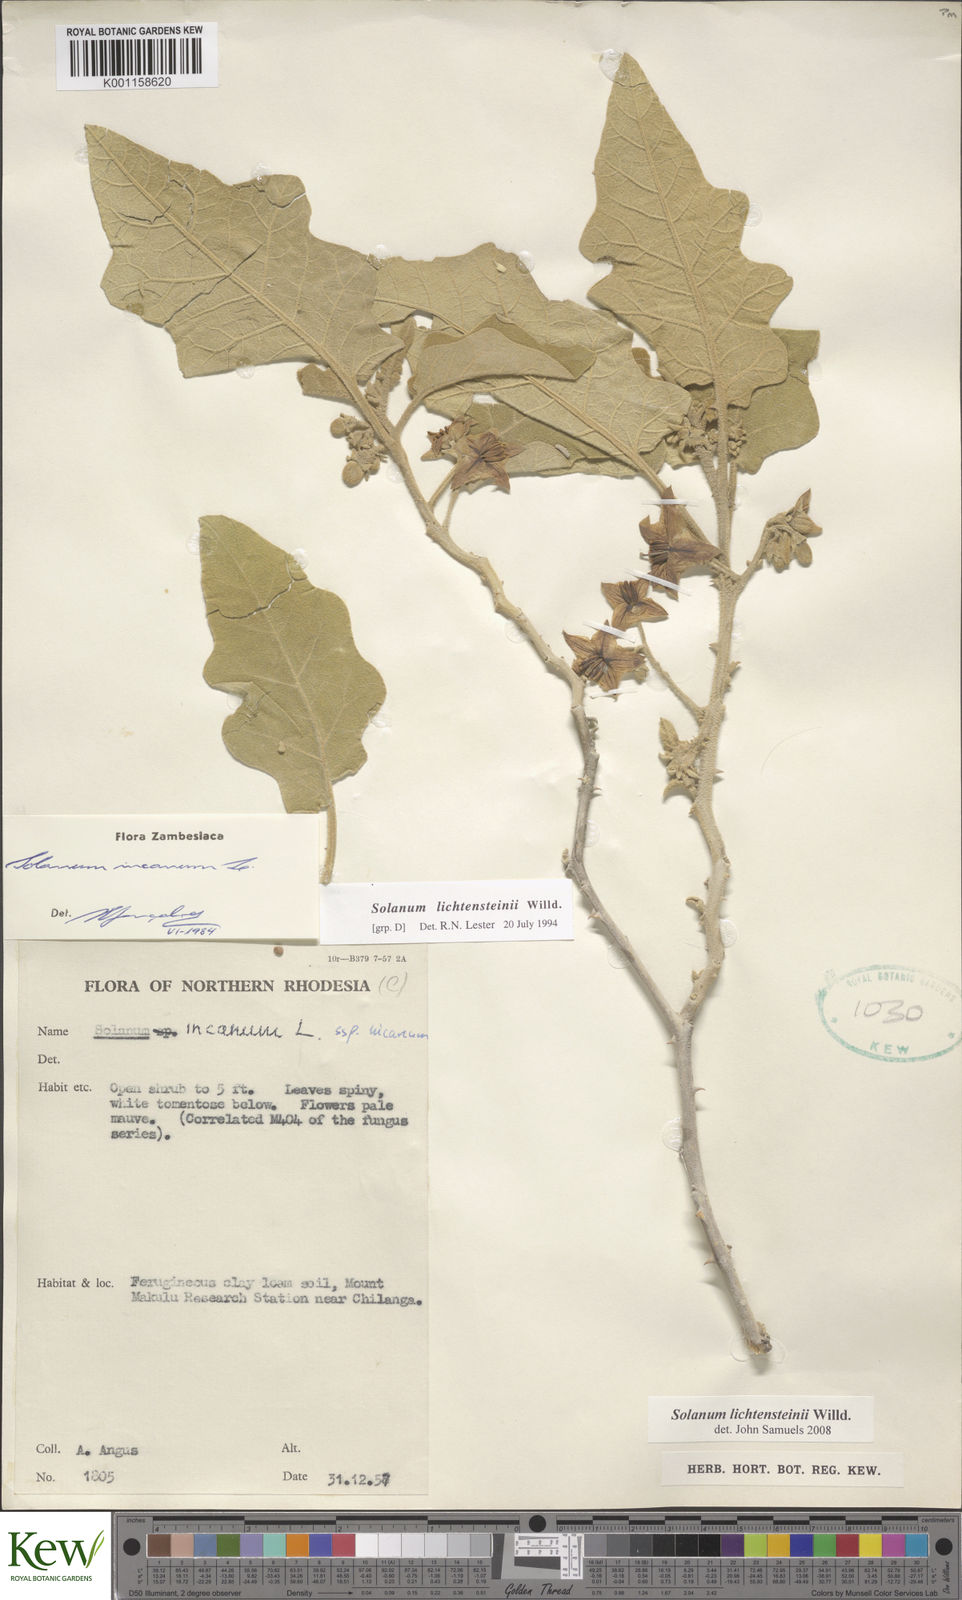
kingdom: Plantae
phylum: Tracheophyta
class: Magnoliopsida
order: Solanales
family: Solanaceae
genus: Solanum
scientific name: Solanum lichtensteinii
